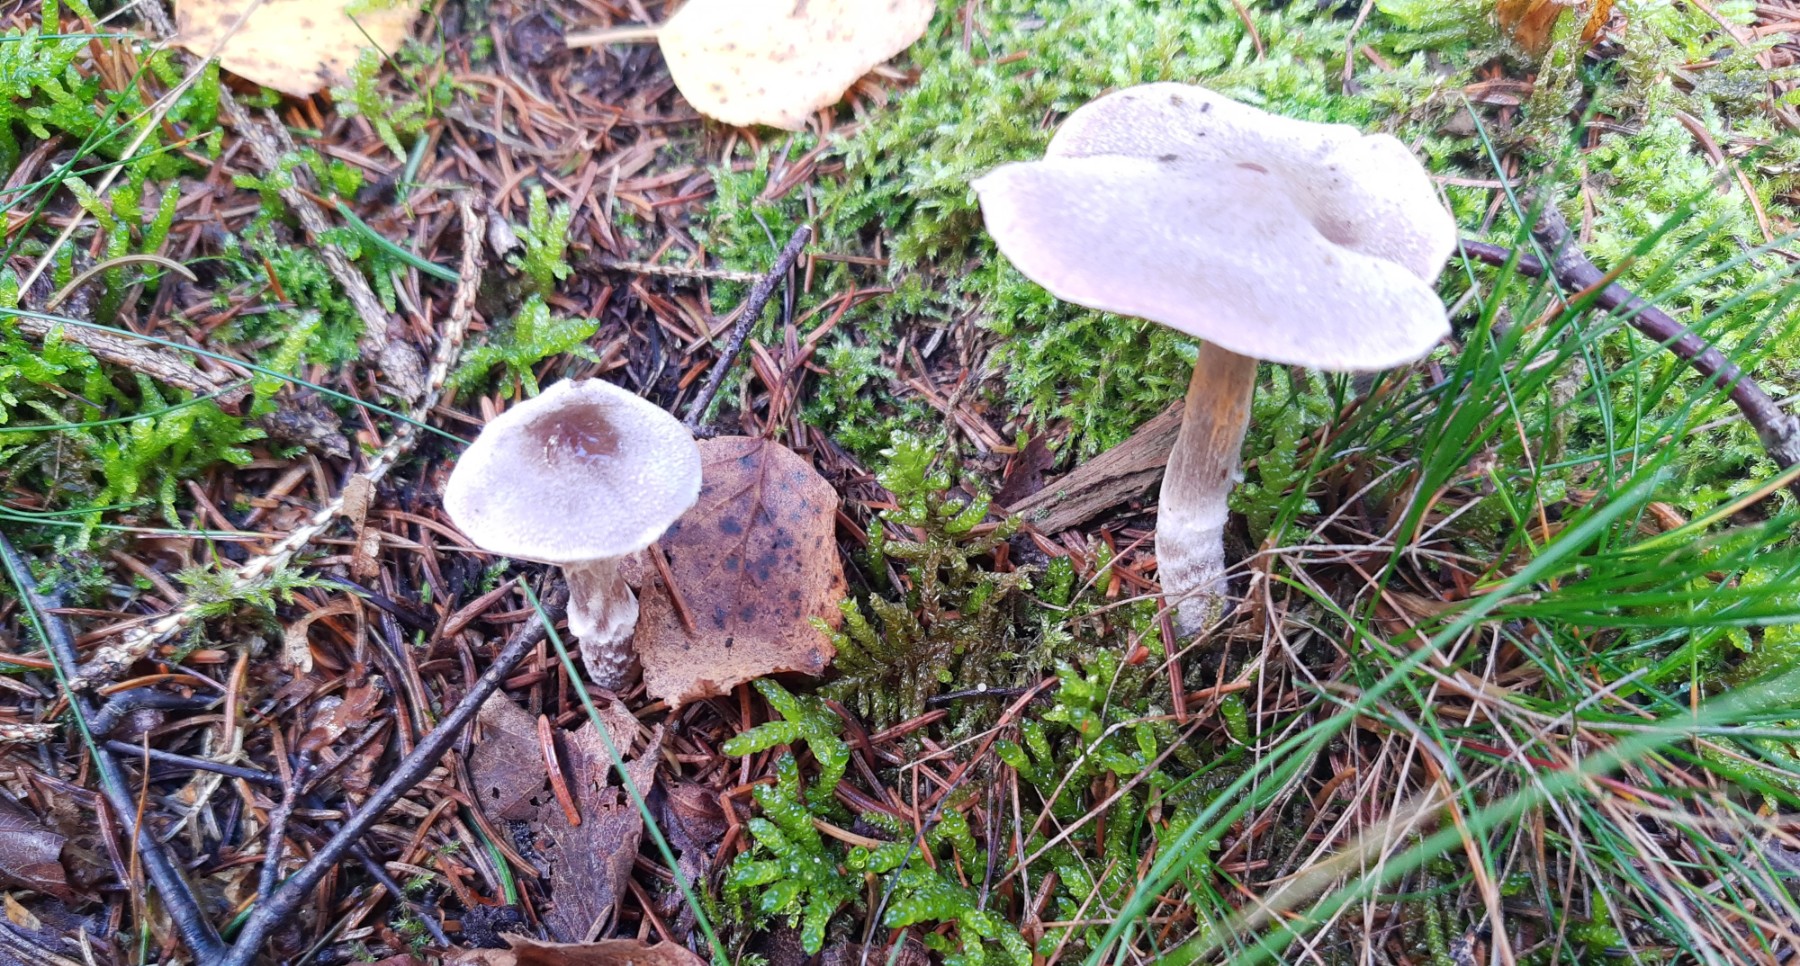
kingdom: Fungi
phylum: Basidiomycota
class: Agaricomycetes
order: Agaricales
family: Cortinariaceae
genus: Cortinarius
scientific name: Cortinarius
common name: pelargonie-slørhat
